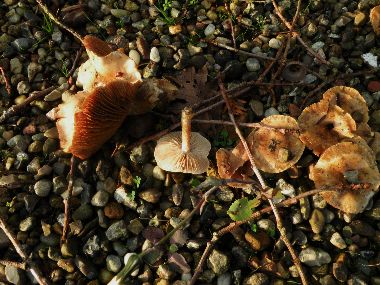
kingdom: Fungi
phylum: Basidiomycota
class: Agaricomycetes
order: Agaricales
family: Hymenogastraceae
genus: Hebeloma
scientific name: Hebeloma mesophaeum
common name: lerbrun tåreblad
